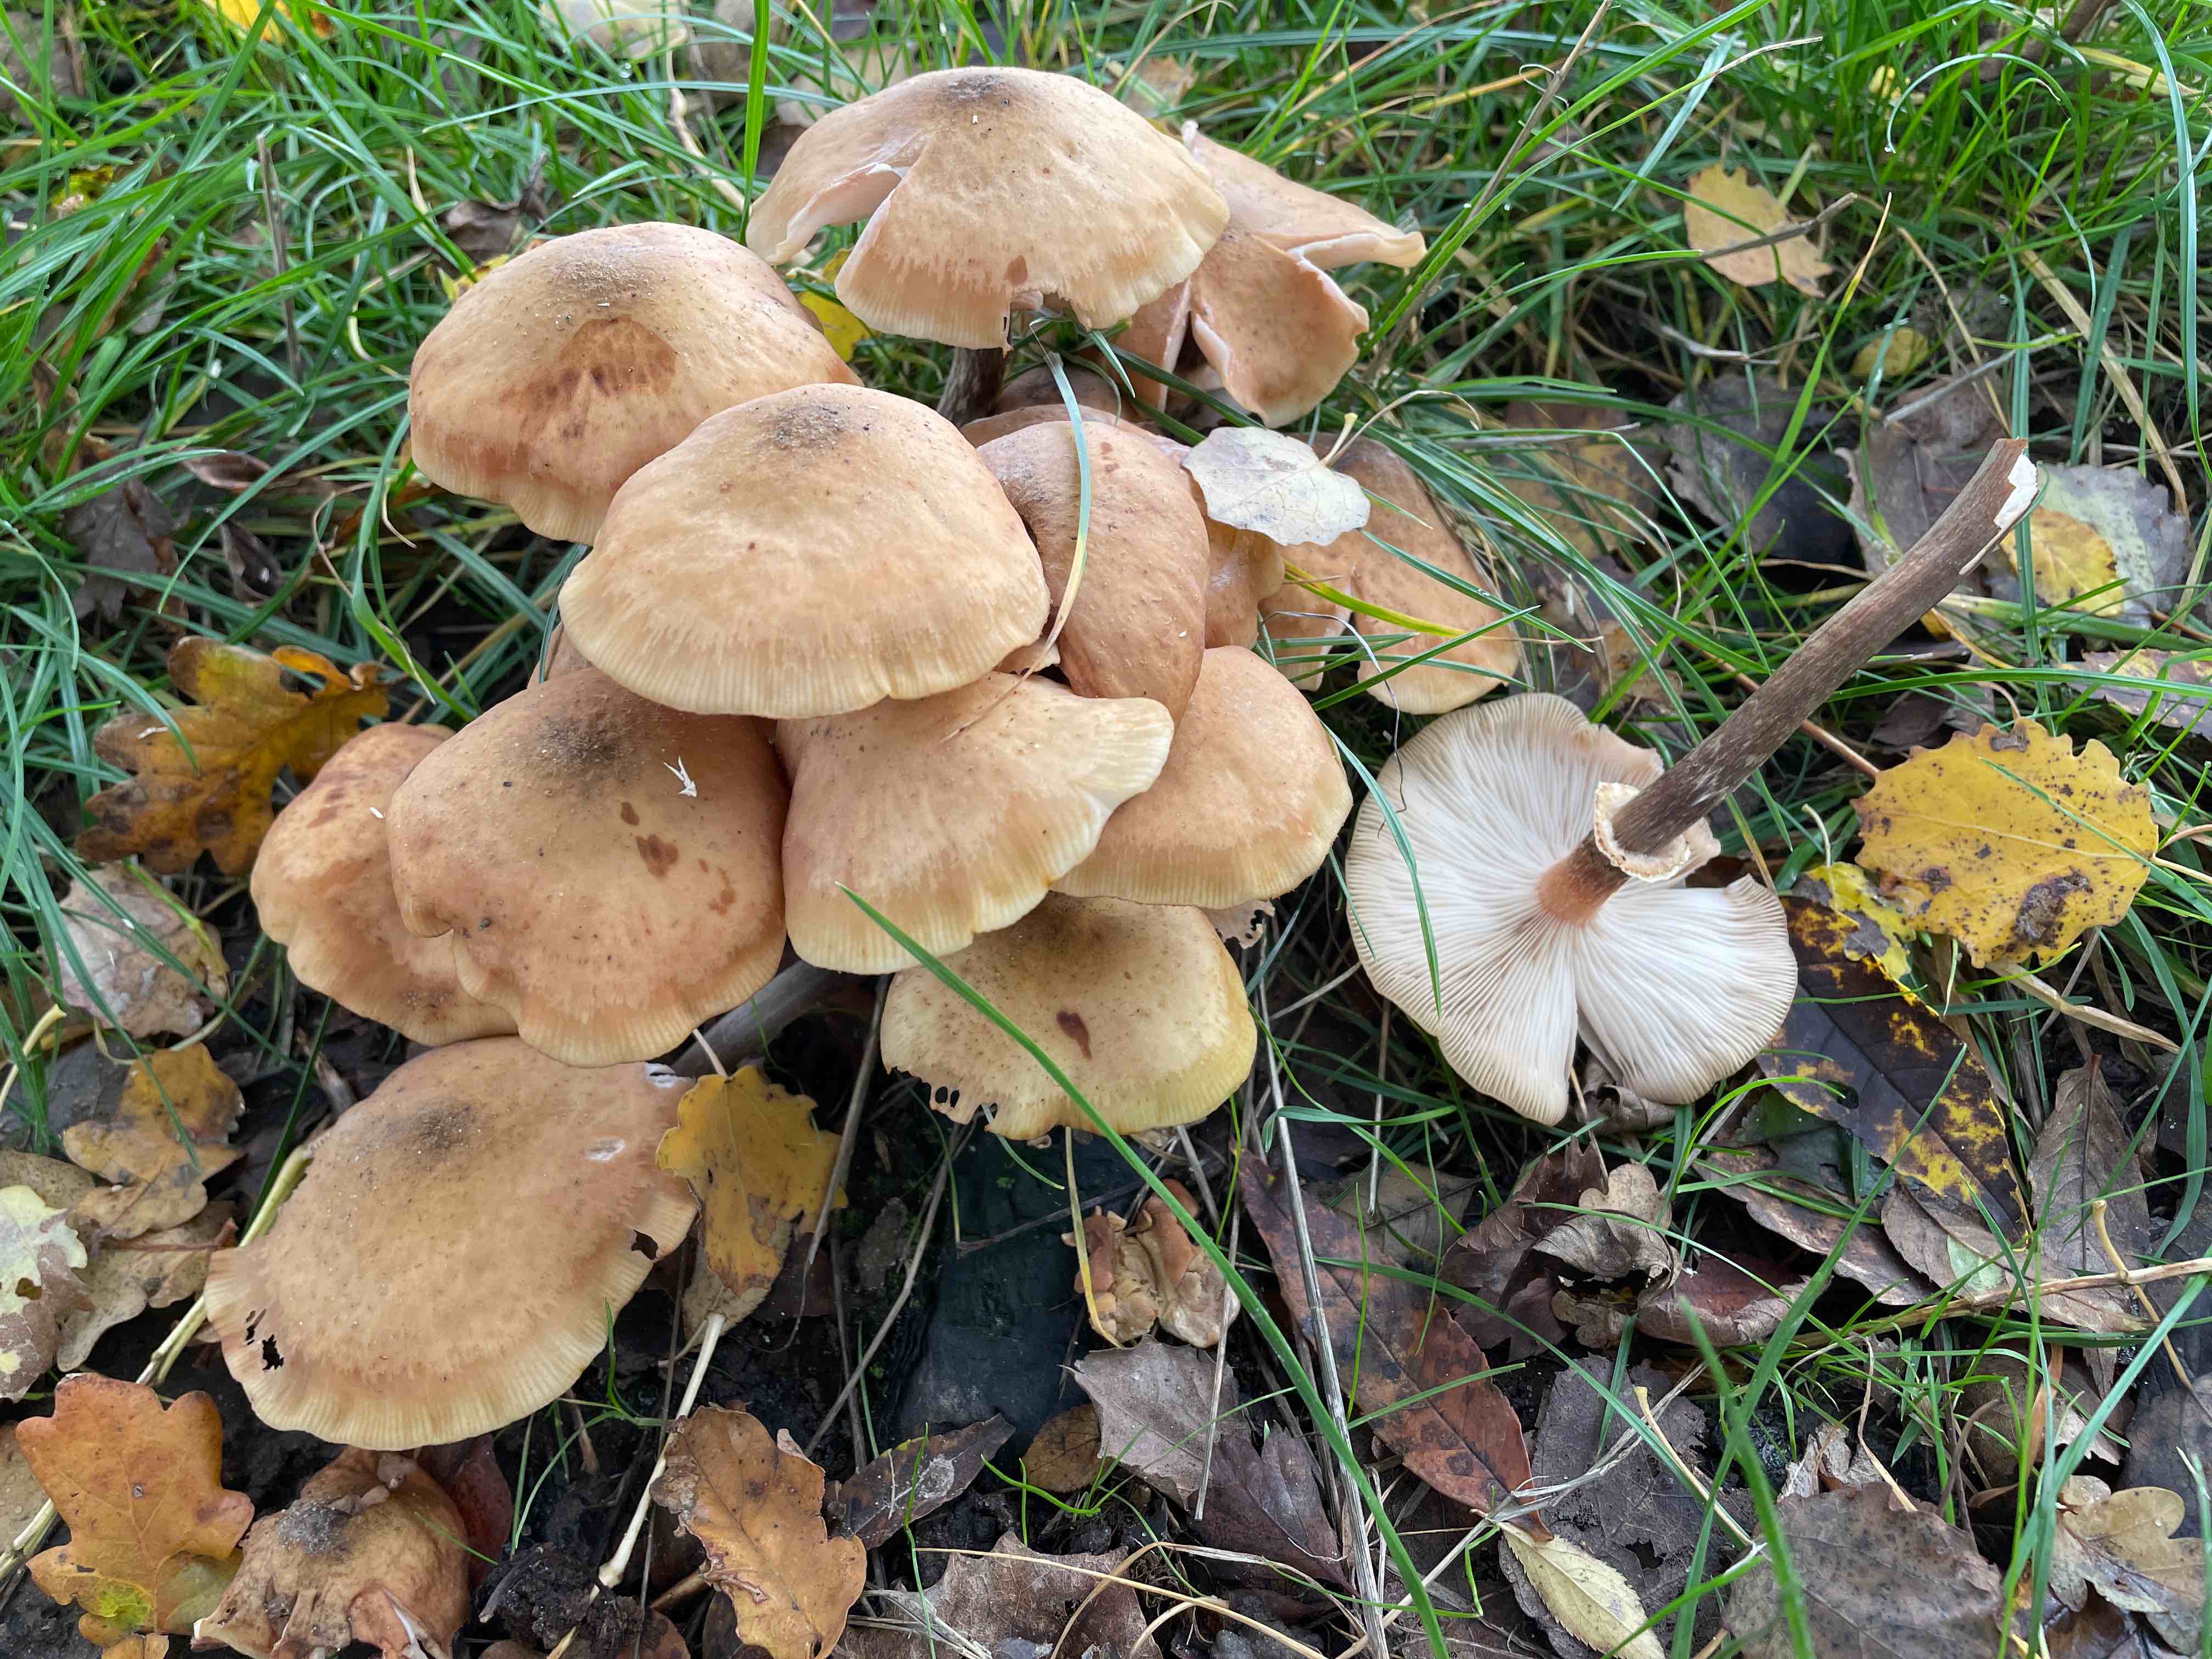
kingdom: Fungi
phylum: Basidiomycota
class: Agaricomycetes
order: Agaricales
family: Physalacriaceae
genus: Armillaria
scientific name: Armillaria mellea
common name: ægte honningsvamp
